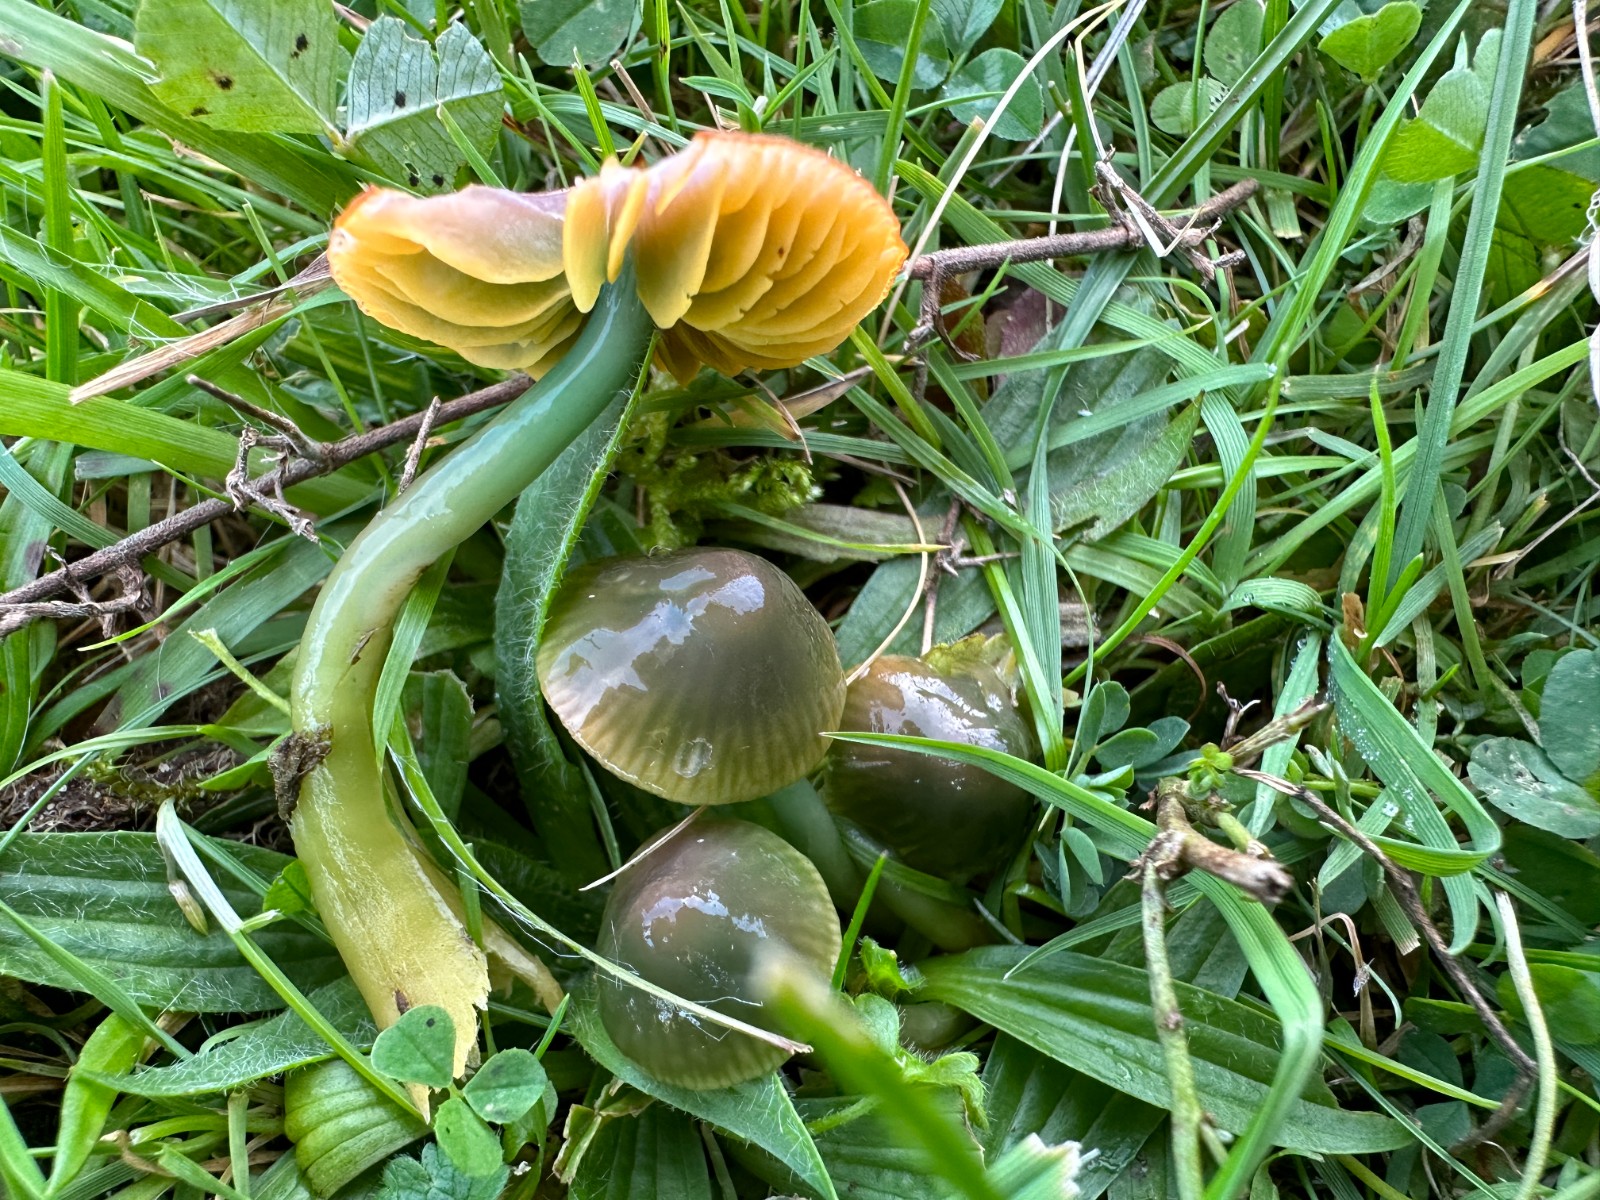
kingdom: Fungi
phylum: Basidiomycota
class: Agaricomycetes
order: Agaricales
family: Hygrophoraceae
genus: Gliophorus
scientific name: Gliophorus psittacinus
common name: papegøje-vokshat
